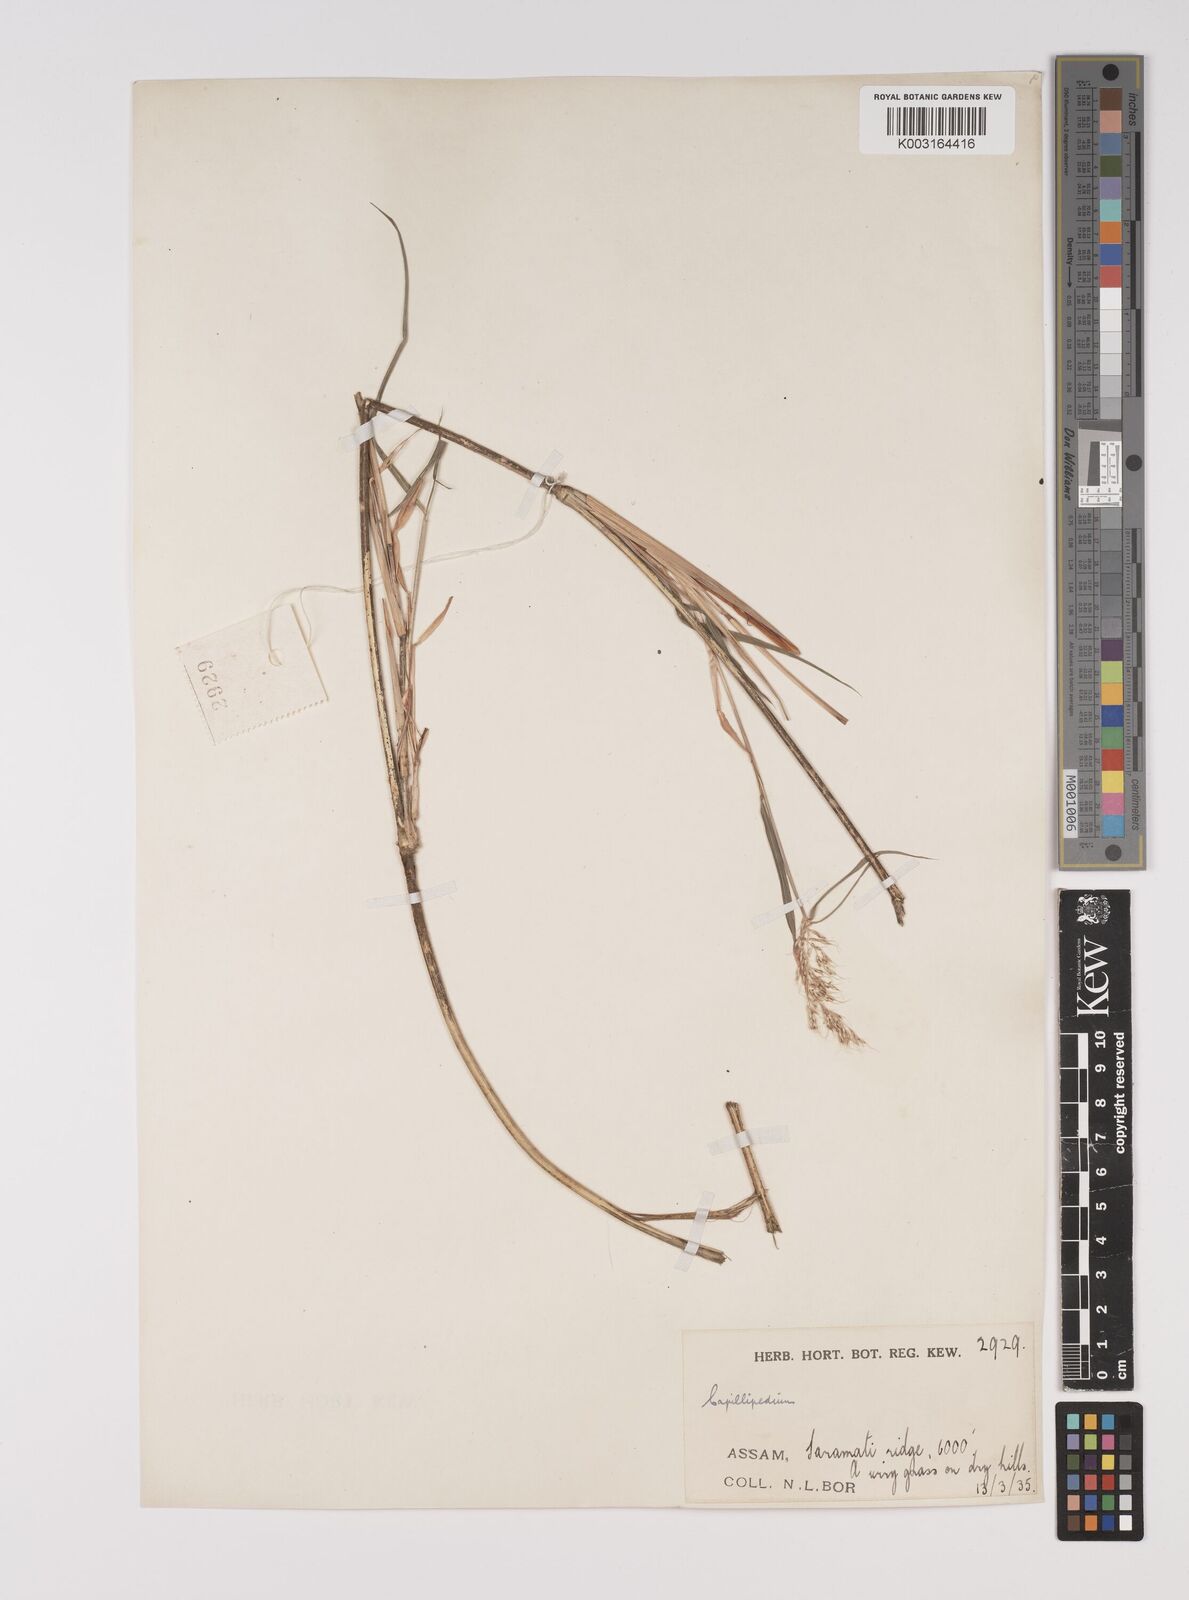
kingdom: Plantae
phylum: Tracheophyta
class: Liliopsida
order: Poales
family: Poaceae
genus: Capillipedium
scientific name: Capillipedium assimile
